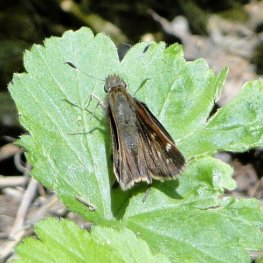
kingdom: Animalia
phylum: Arthropoda
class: Insecta
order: Lepidoptera
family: Hesperiidae
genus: Lon
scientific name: Lon hobomok
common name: Hobomok Skipper
